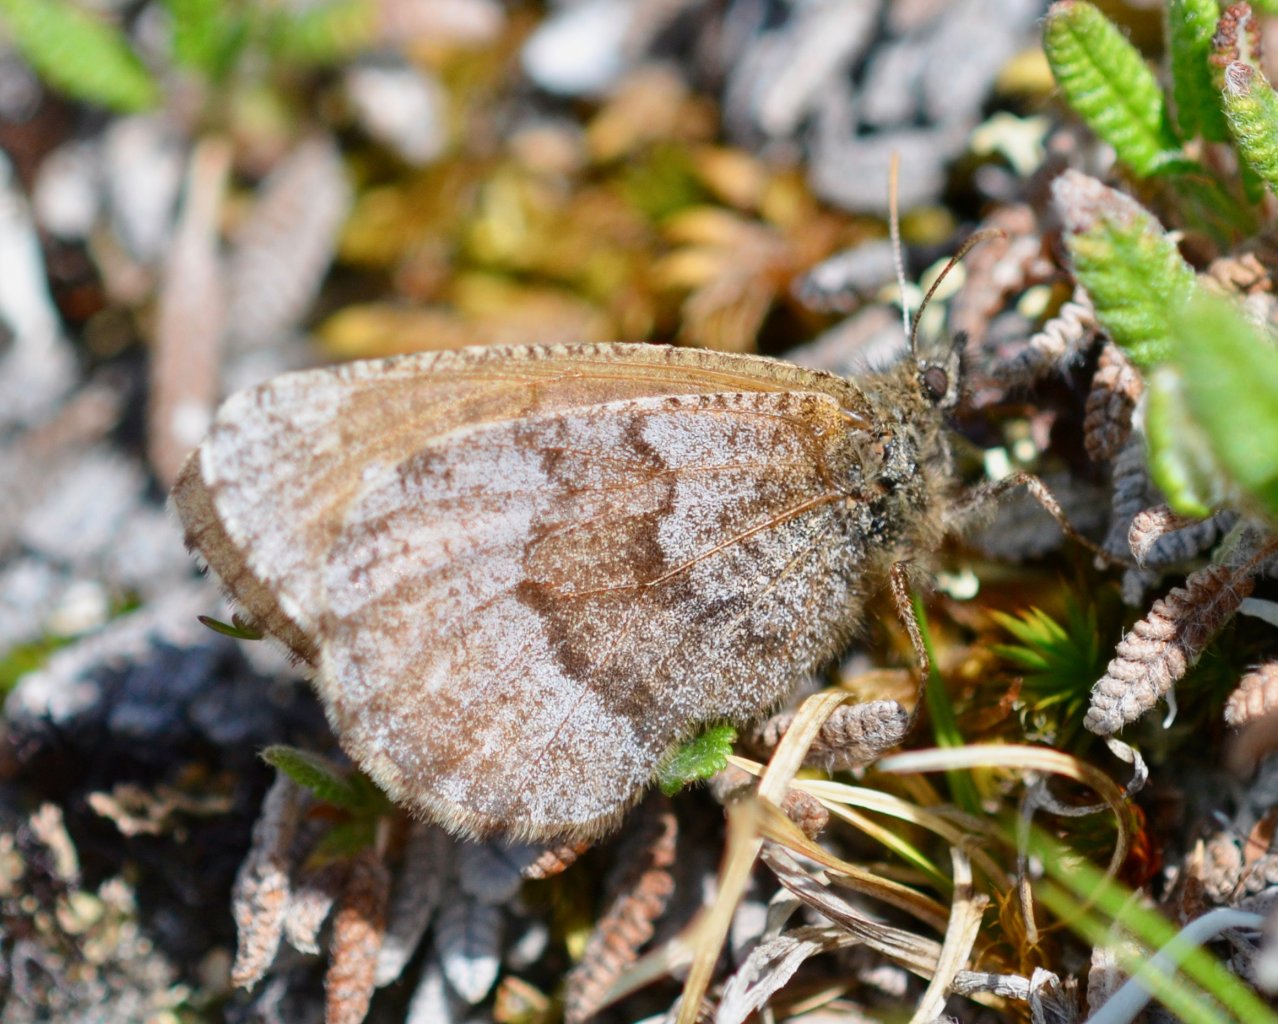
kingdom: Animalia
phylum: Arthropoda
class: Insecta
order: Lepidoptera
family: Nymphalidae
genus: Oeneis
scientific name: Oeneis bore
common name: Polixenes Arctic
